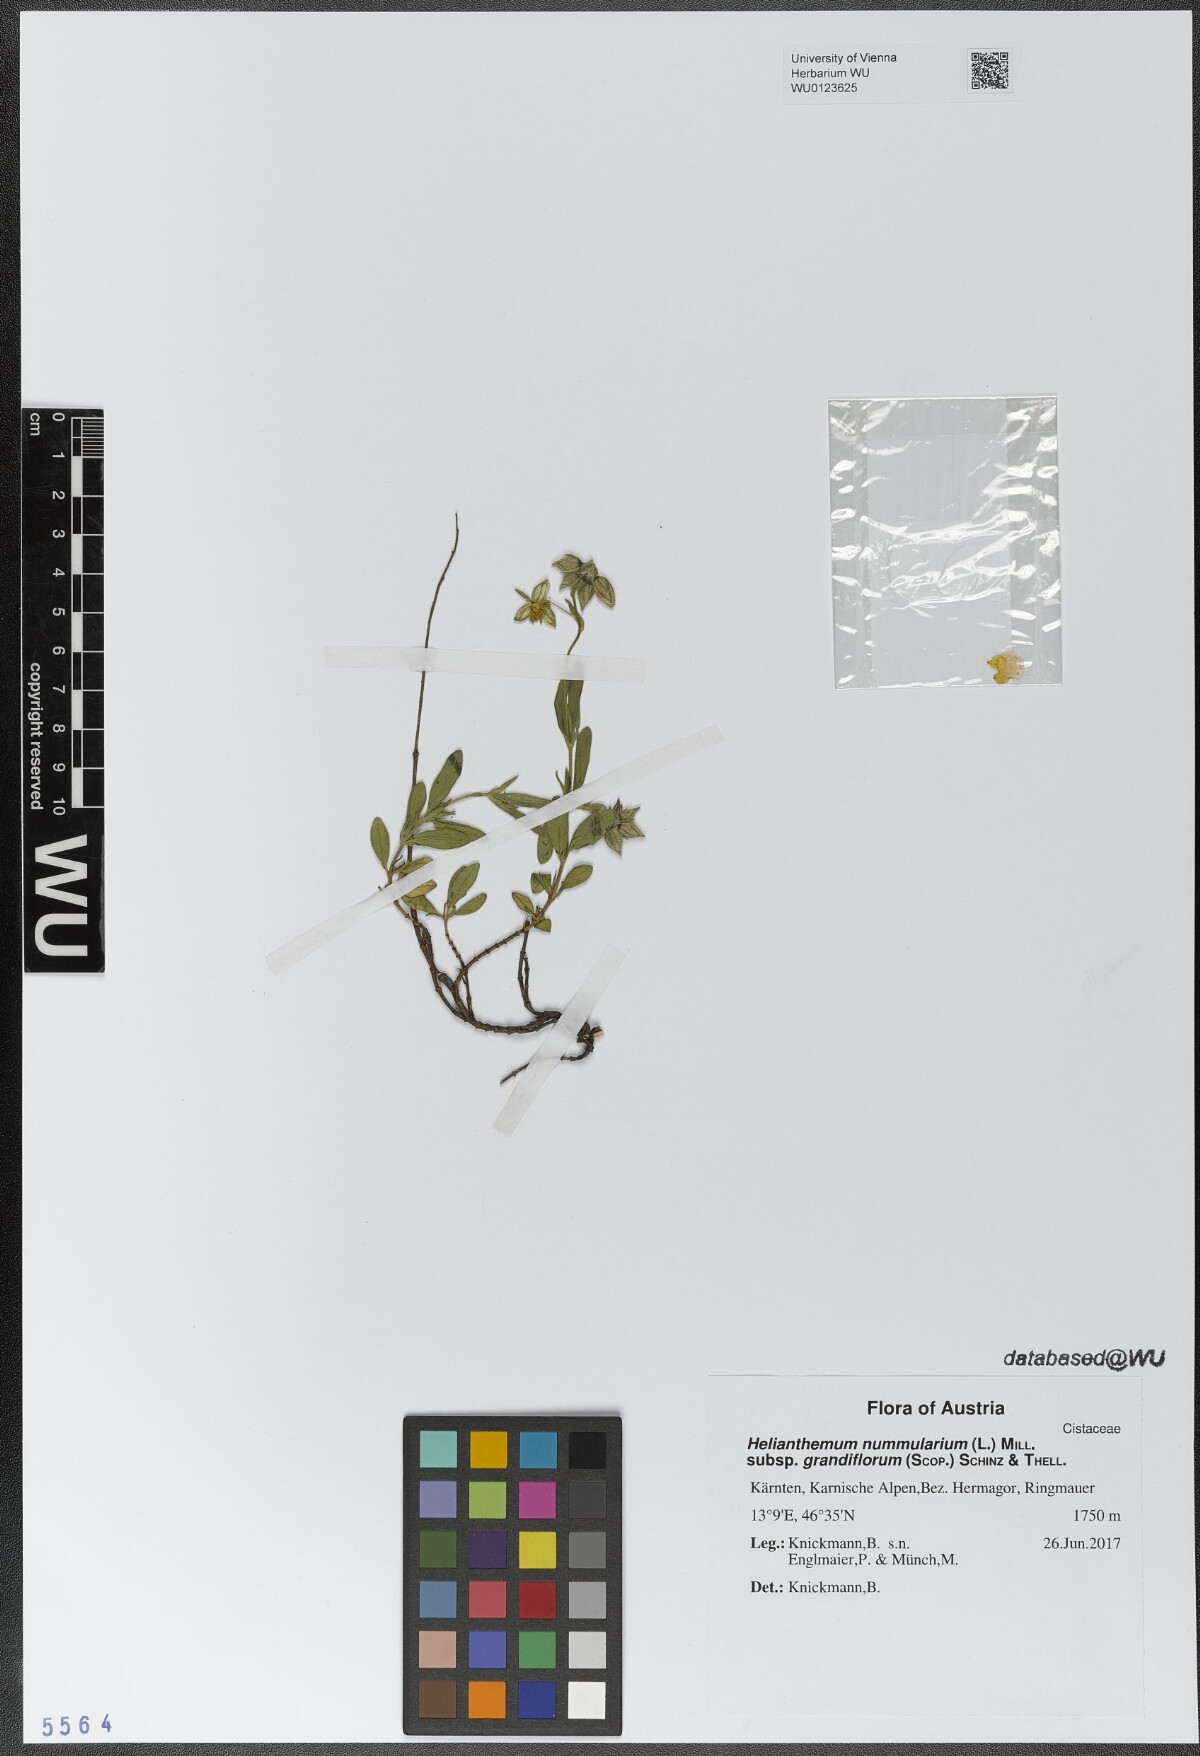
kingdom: Plantae
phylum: Tracheophyta
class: Magnoliopsida
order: Malvales
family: Cistaceae
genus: Helianthemum
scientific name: Helianthemum nummularium
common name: Common rock-rose
